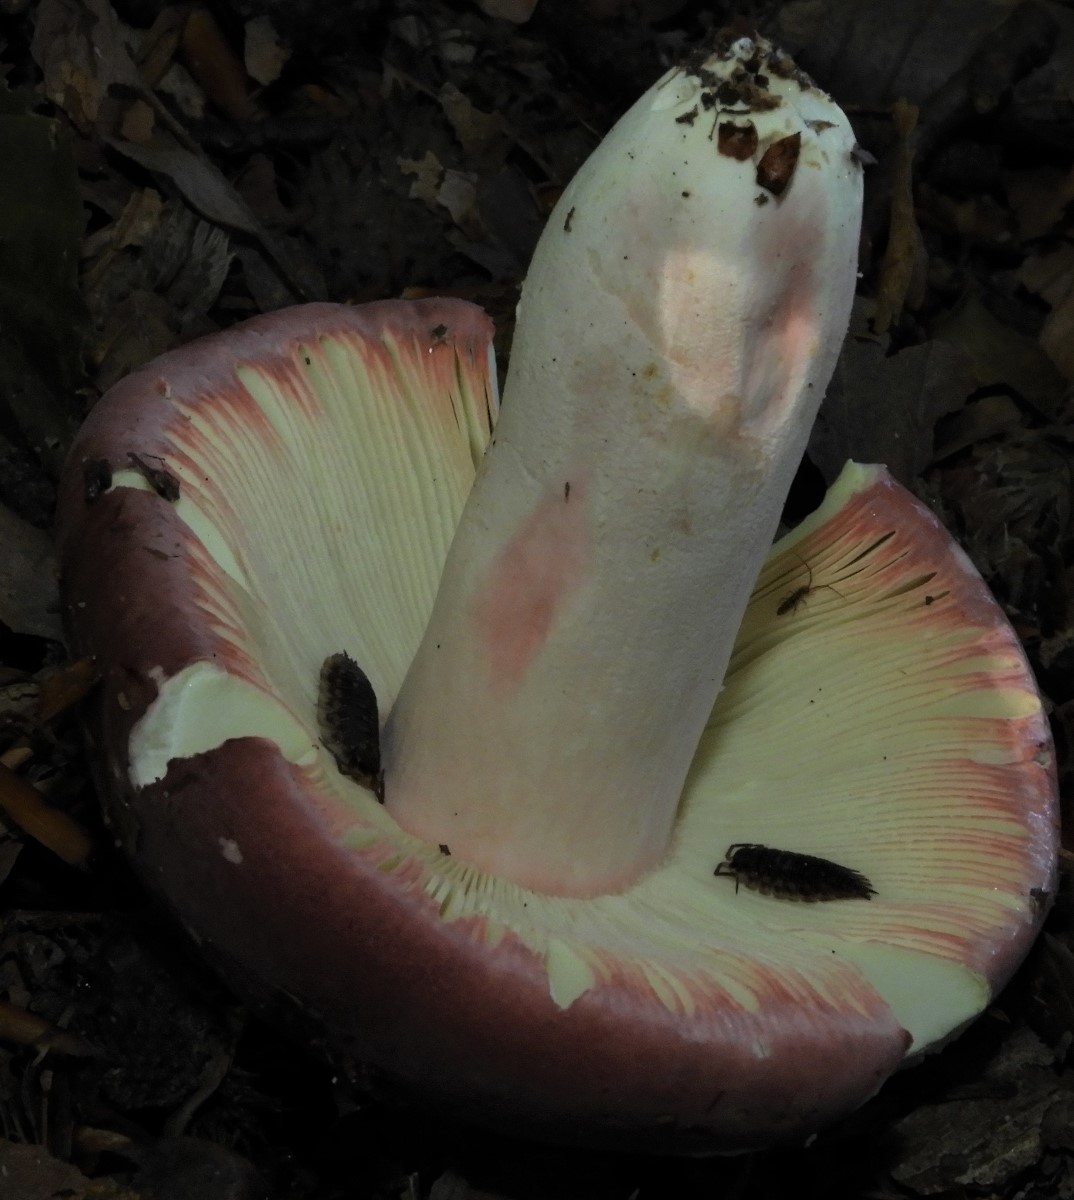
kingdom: Fungi
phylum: Basidiomycota
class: Agaricomycetes
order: Russulales
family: Russulaceae
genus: Russula
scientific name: Russula olivacea
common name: stor skørhat
